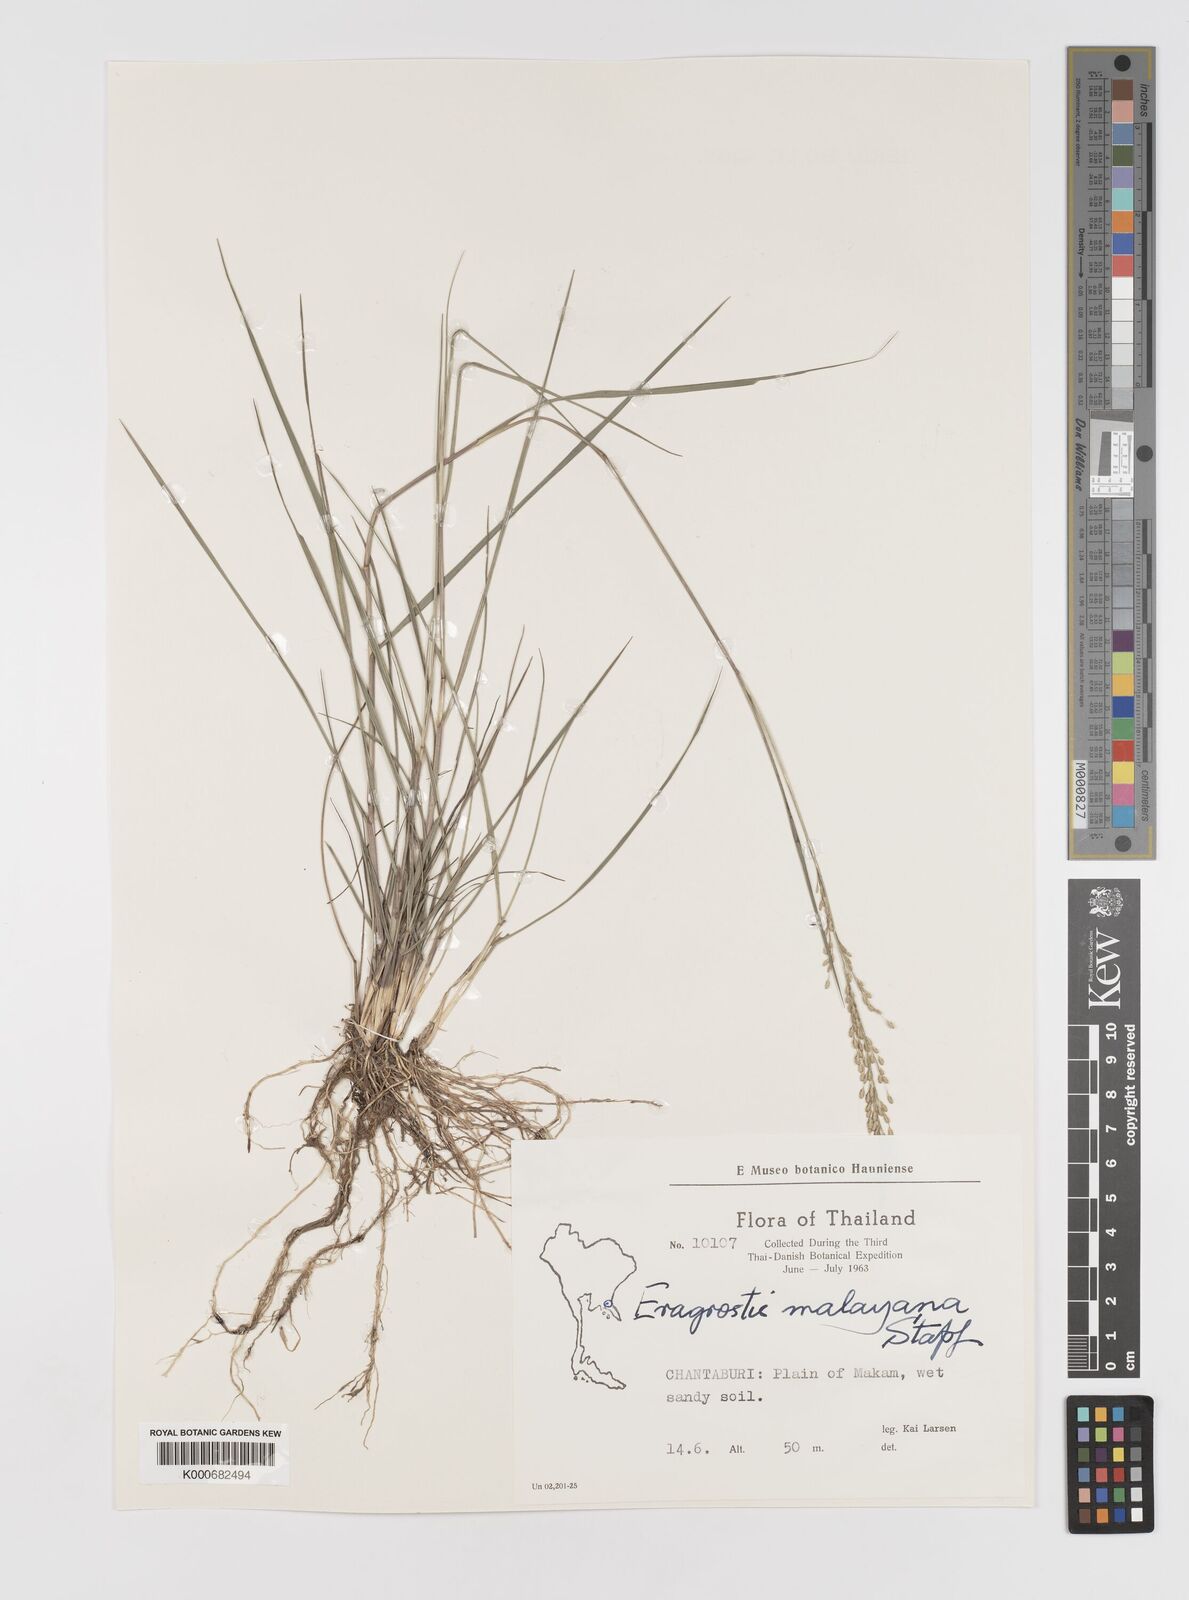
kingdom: Plantae
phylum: Tracheophyta
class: Liliopsida
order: Poales
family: Poaceae
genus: Eragrostis
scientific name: Eragrostis montana
